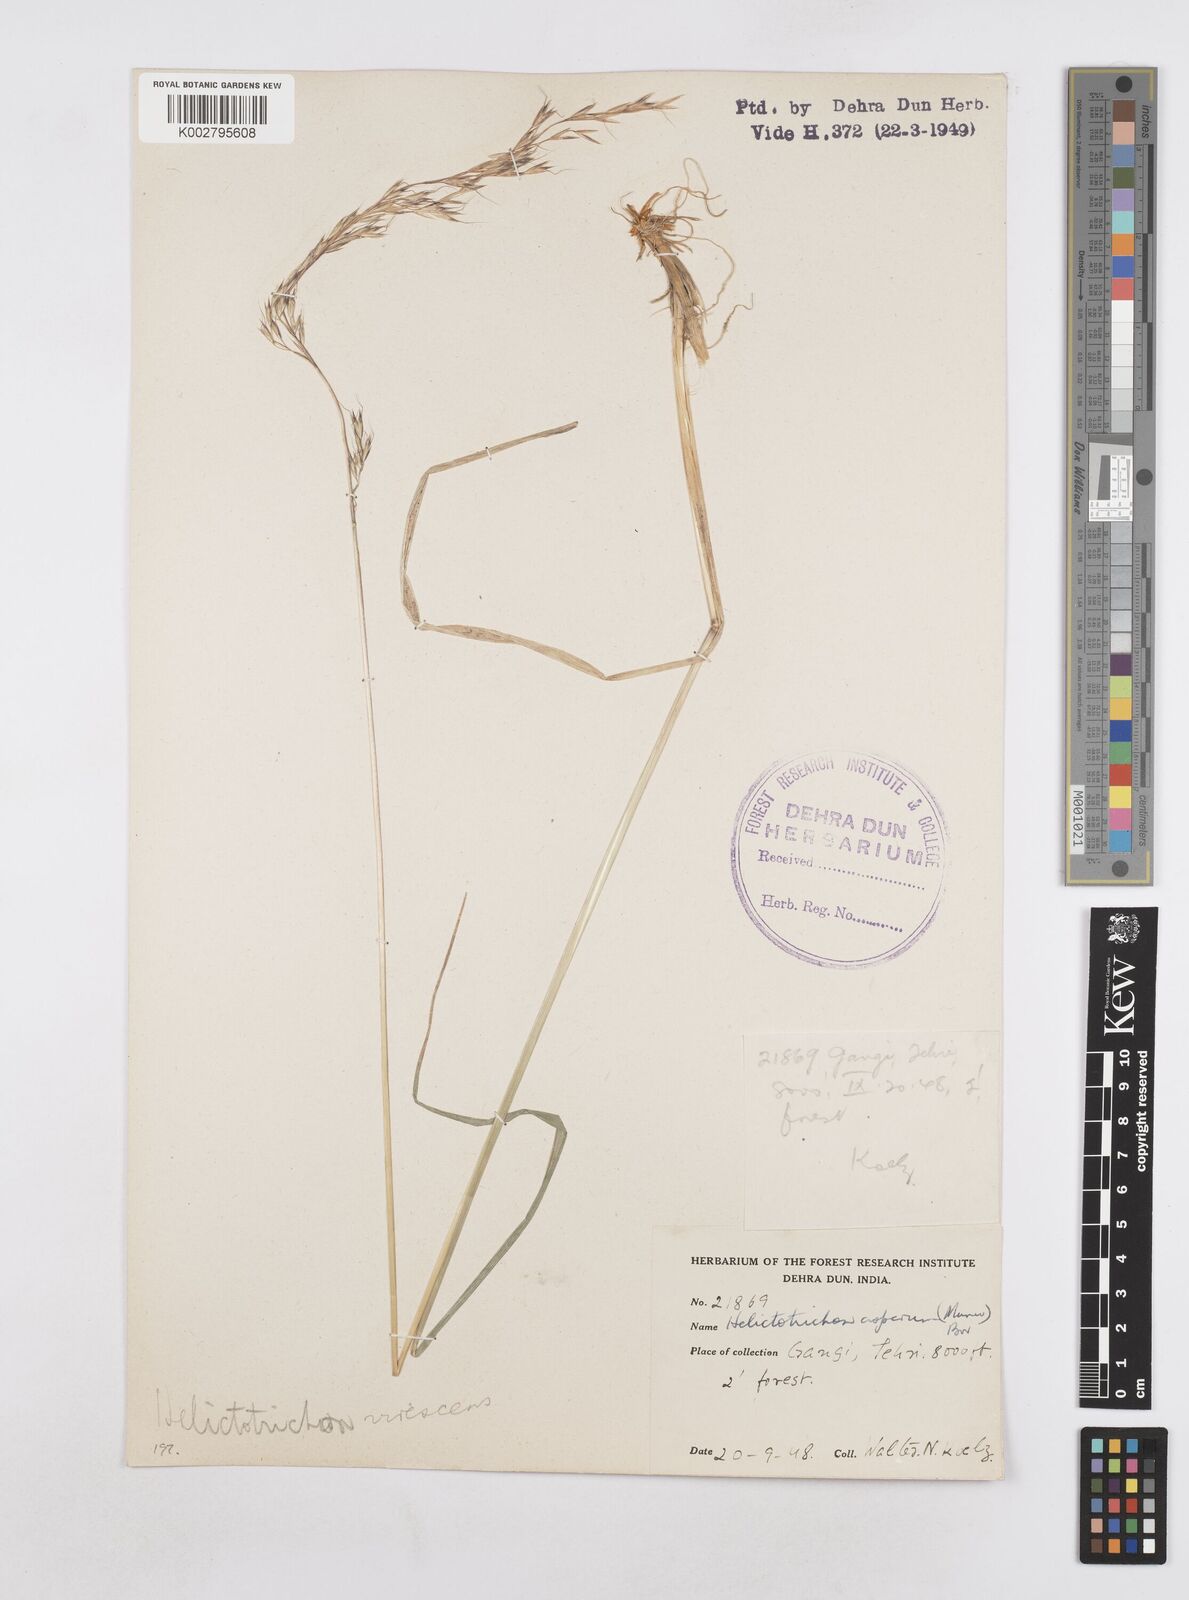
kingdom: Plantae
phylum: Tracheophyta
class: Liliopsida
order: Poales
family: Poaceae
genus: Helictotrichon
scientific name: Helictotrichon
